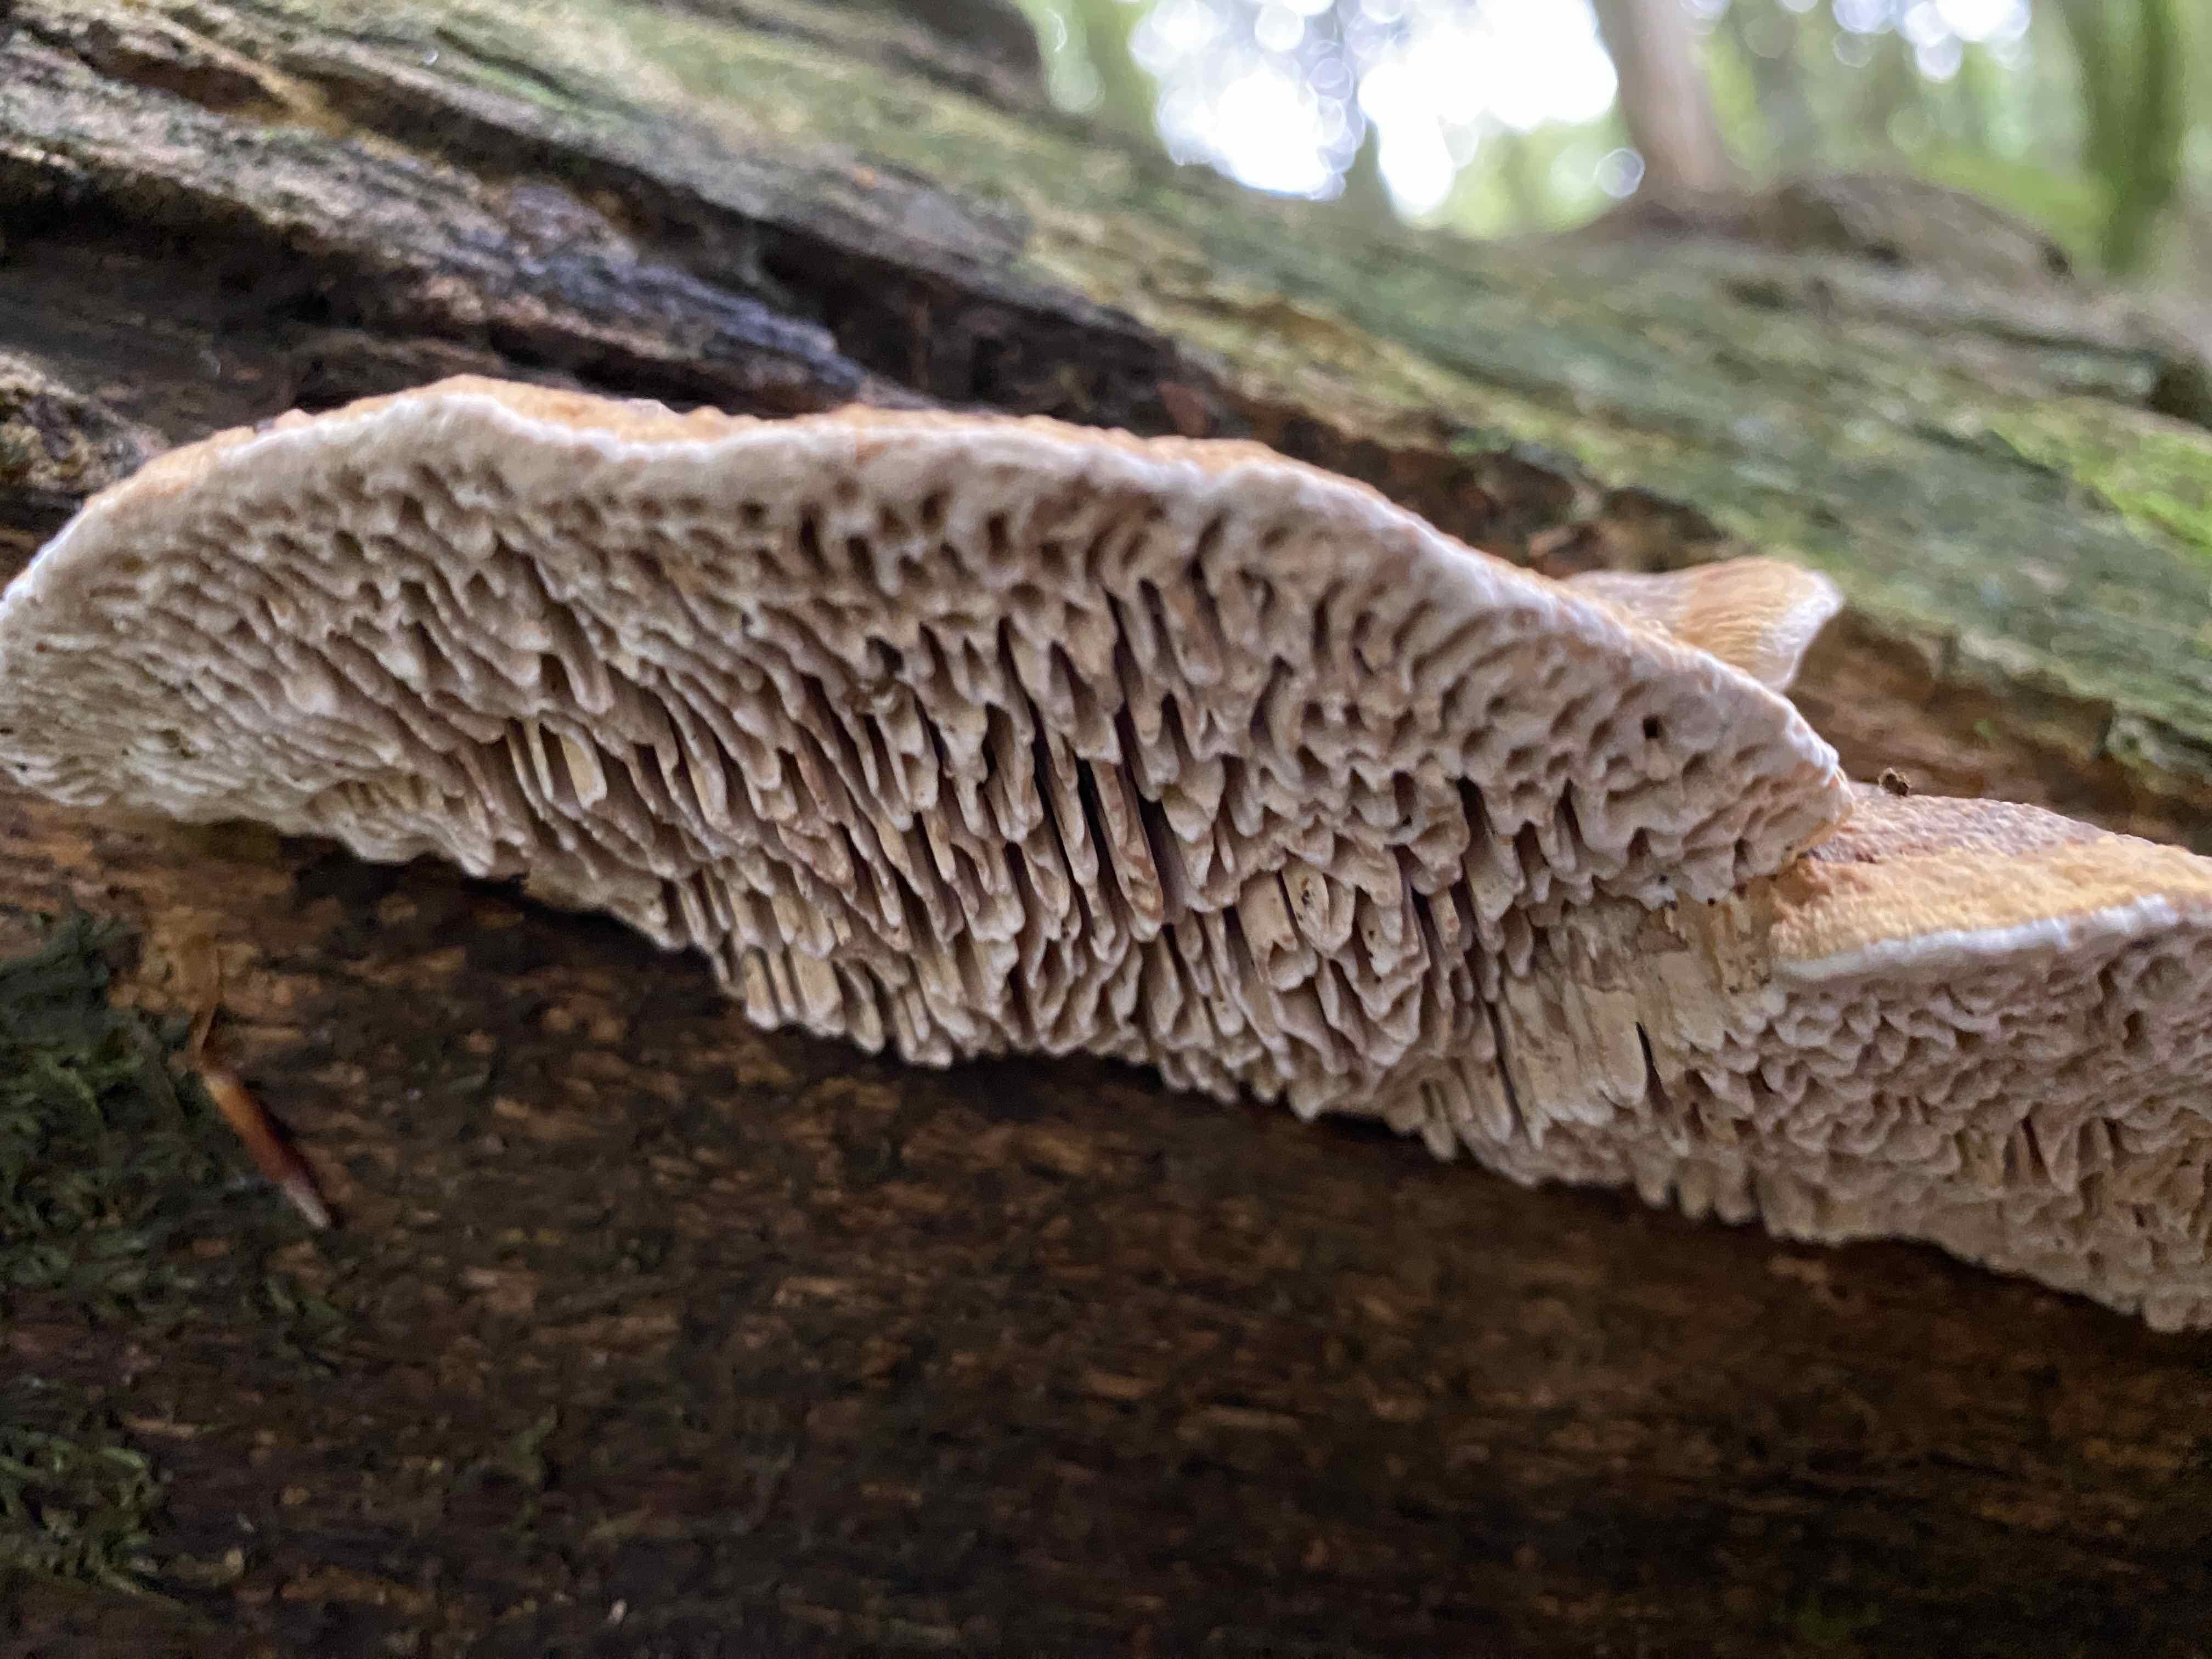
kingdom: Fungi
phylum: Basidiomycota
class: Agaricomycetes
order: Polyporales
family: Fomitopsidaceae
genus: Daedalea
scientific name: Daedalea quercina
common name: ege-labyrintsvamp
